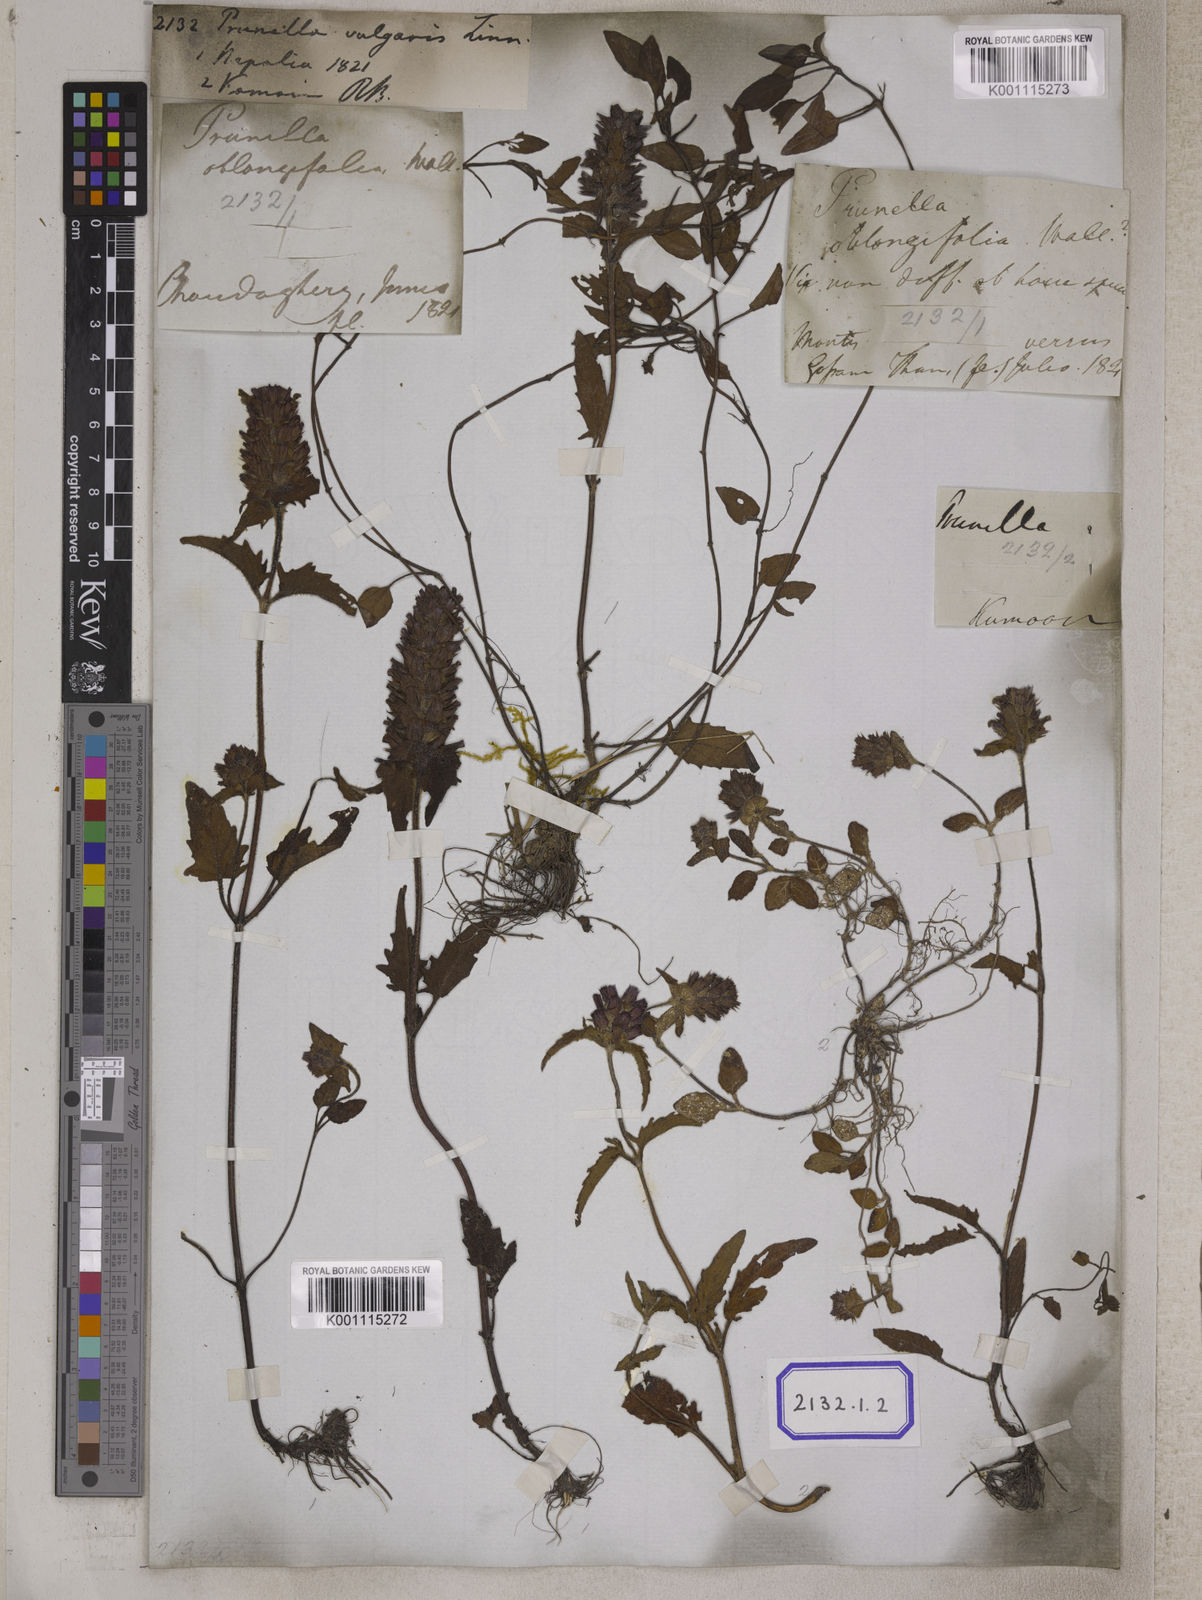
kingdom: Plantae
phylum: Tracheophyta
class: Magnoliopsida
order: Lamiales
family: Lamiaceae
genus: Prunella
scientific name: Prunella vulgaris
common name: Heal-all
